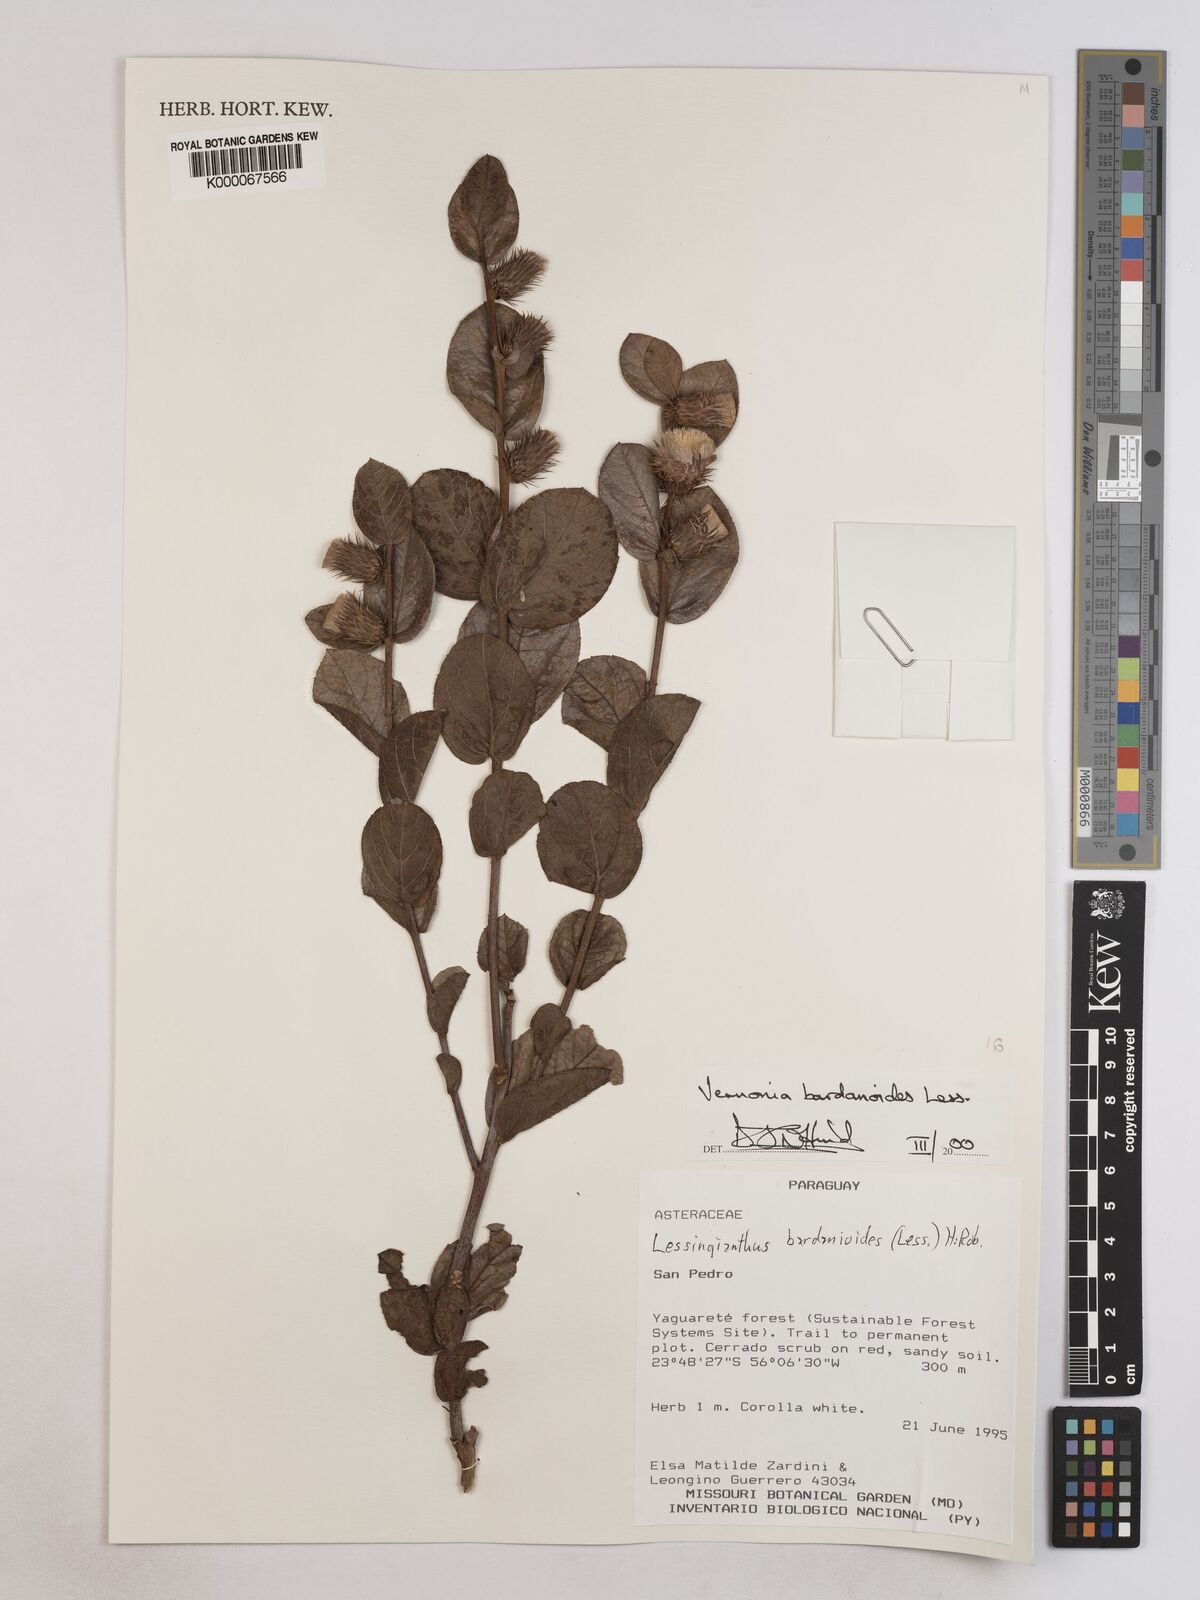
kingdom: Plantae
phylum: Tracheophyta
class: Magnoliopsida
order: Asterales
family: Asteraceae
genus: Lessingianthus
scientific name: Lessingianthus bardanioides
